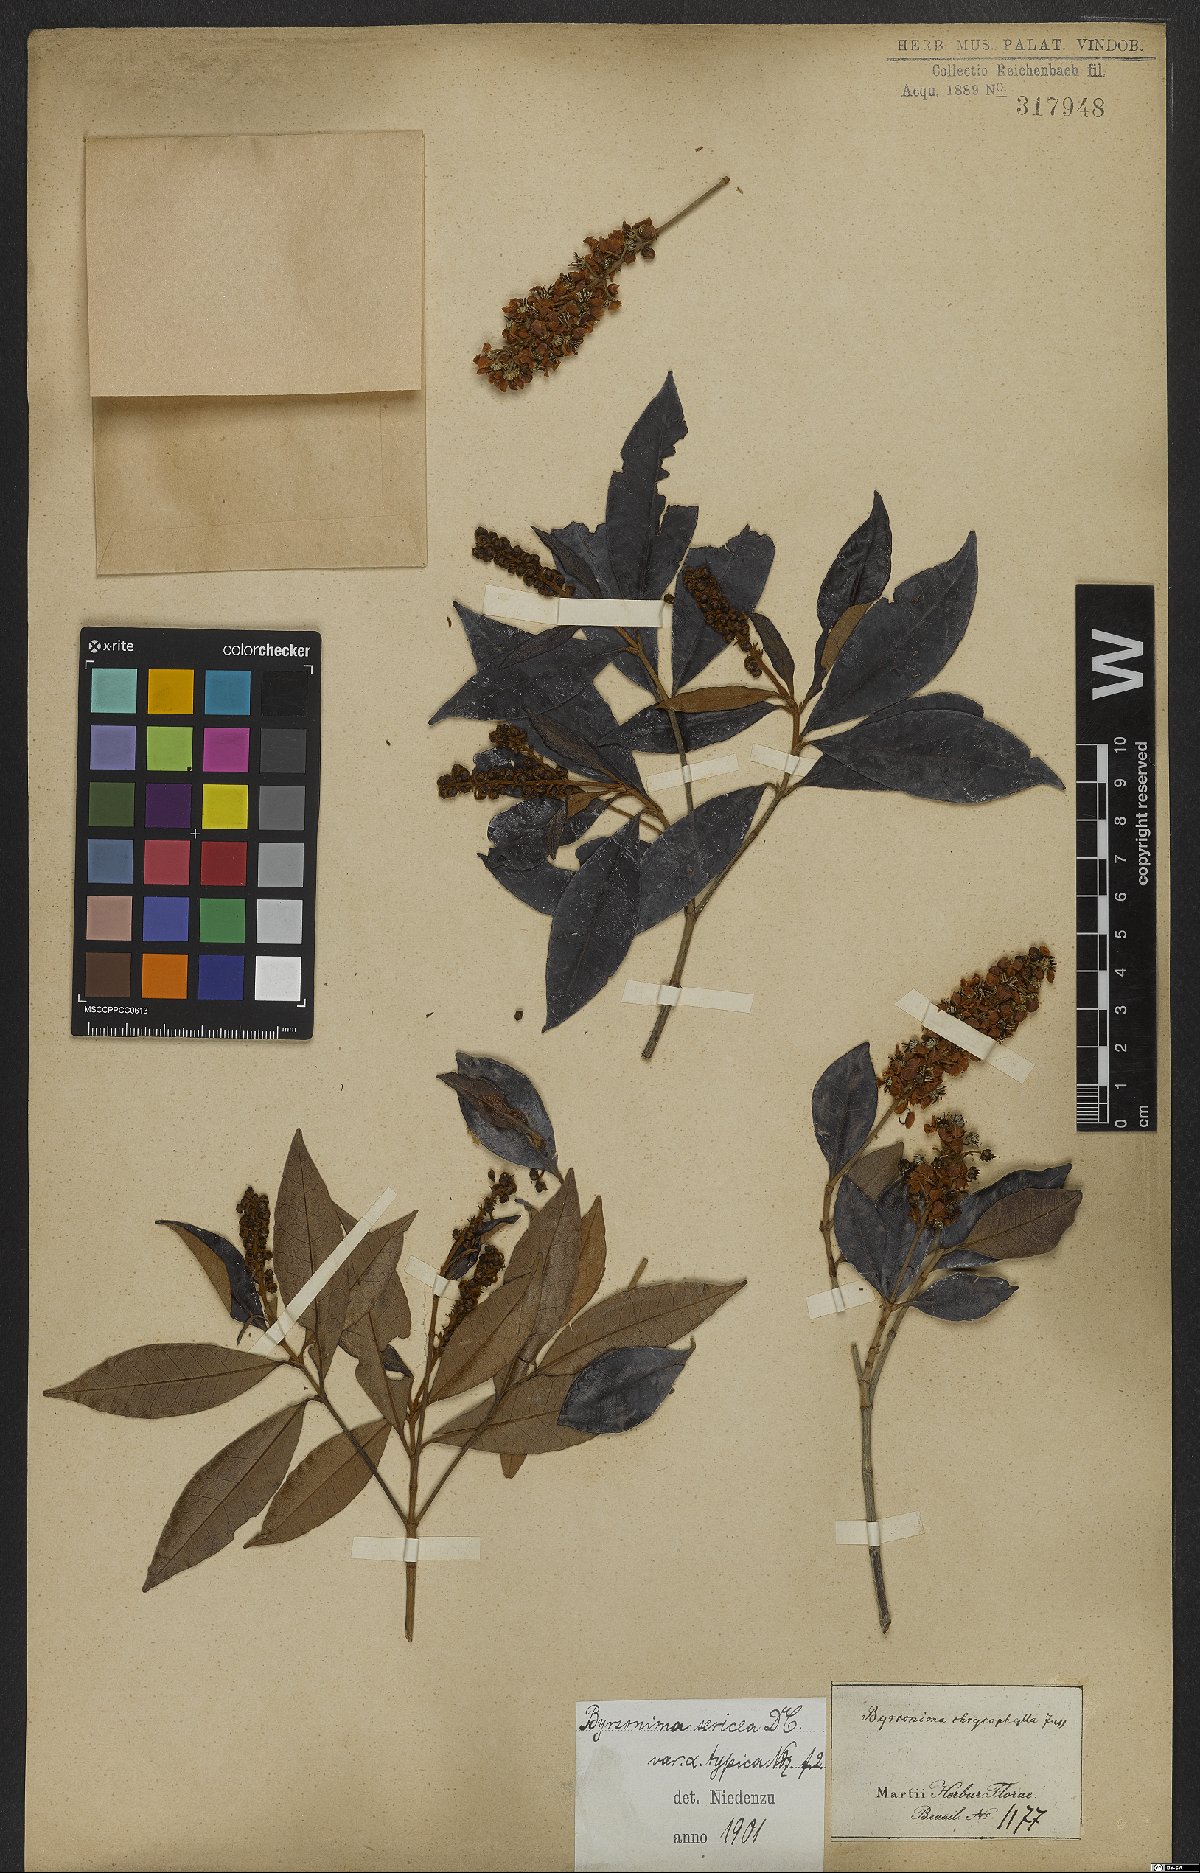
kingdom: Plantae
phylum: Tracheophyta
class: Magnoliopsida
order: Malpighiales
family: Malpighiaceae
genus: Byrsonima
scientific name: Byrsonima sericea
